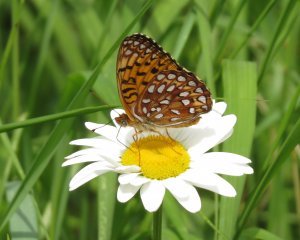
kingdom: Animalia
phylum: Arthropoda
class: Insecta
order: Lepidoptera
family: Nymphalidae
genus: Speyeria
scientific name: Speyeria atlantis
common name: Atlantis Fritillary
